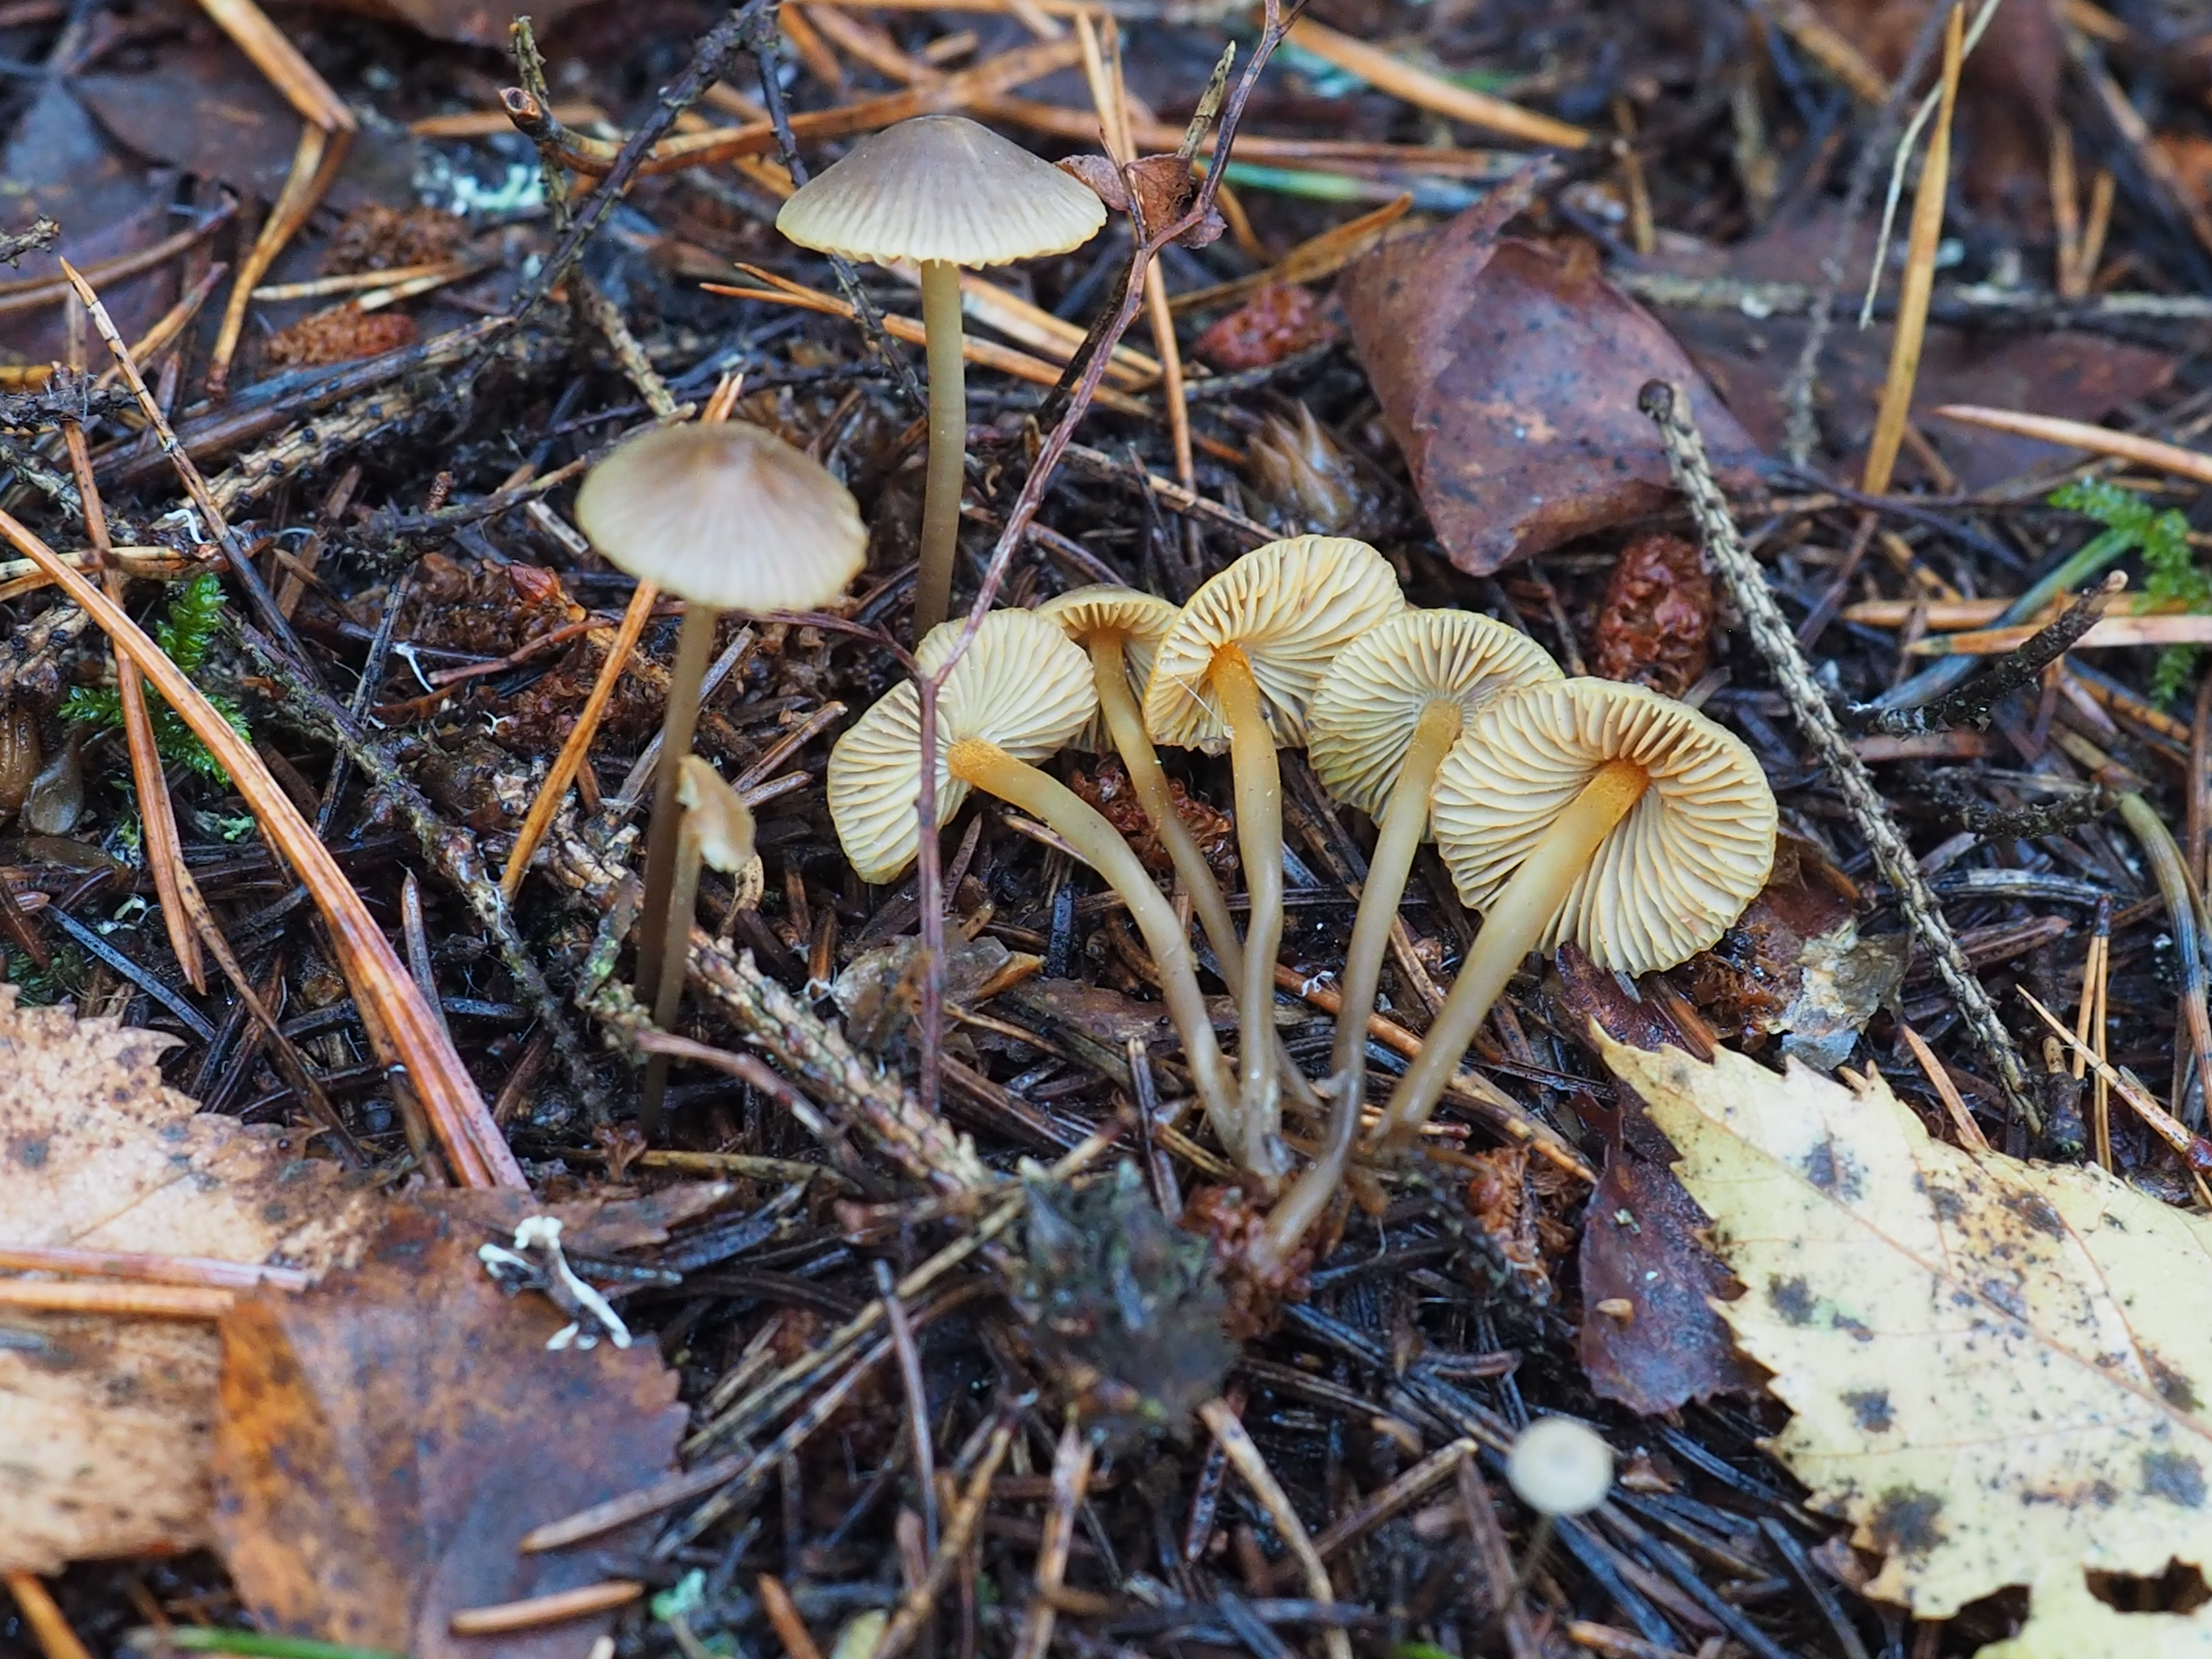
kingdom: Fungi
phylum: Basidiomycota
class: Agaricomycetes
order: Agaricales
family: Mycenaceae
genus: Mycena
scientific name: Mycena aurantiomarginata
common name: Golden edge bonnet
